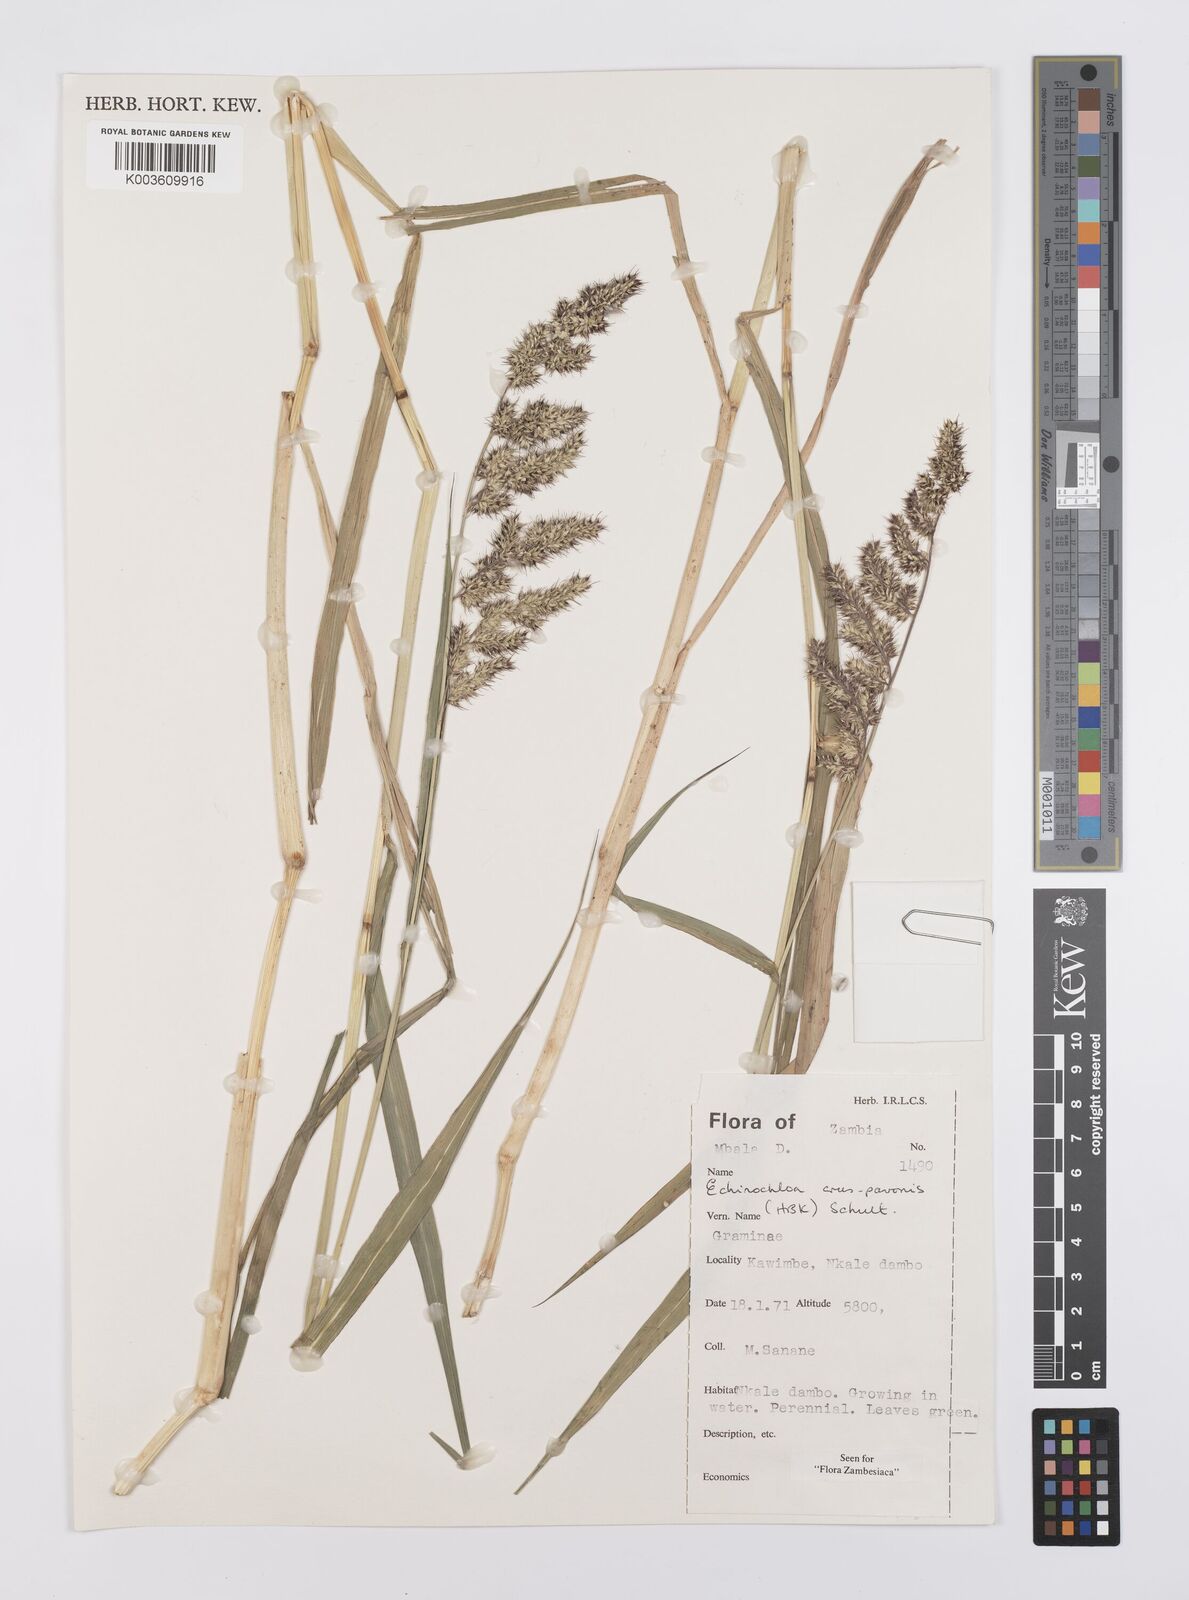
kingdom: Plantae
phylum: Tracheophyta
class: Liliopsida
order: Poales
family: Poaceae
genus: Echinochloa
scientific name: Echinochloa crus-pavonis
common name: Gulf cockspur grass
